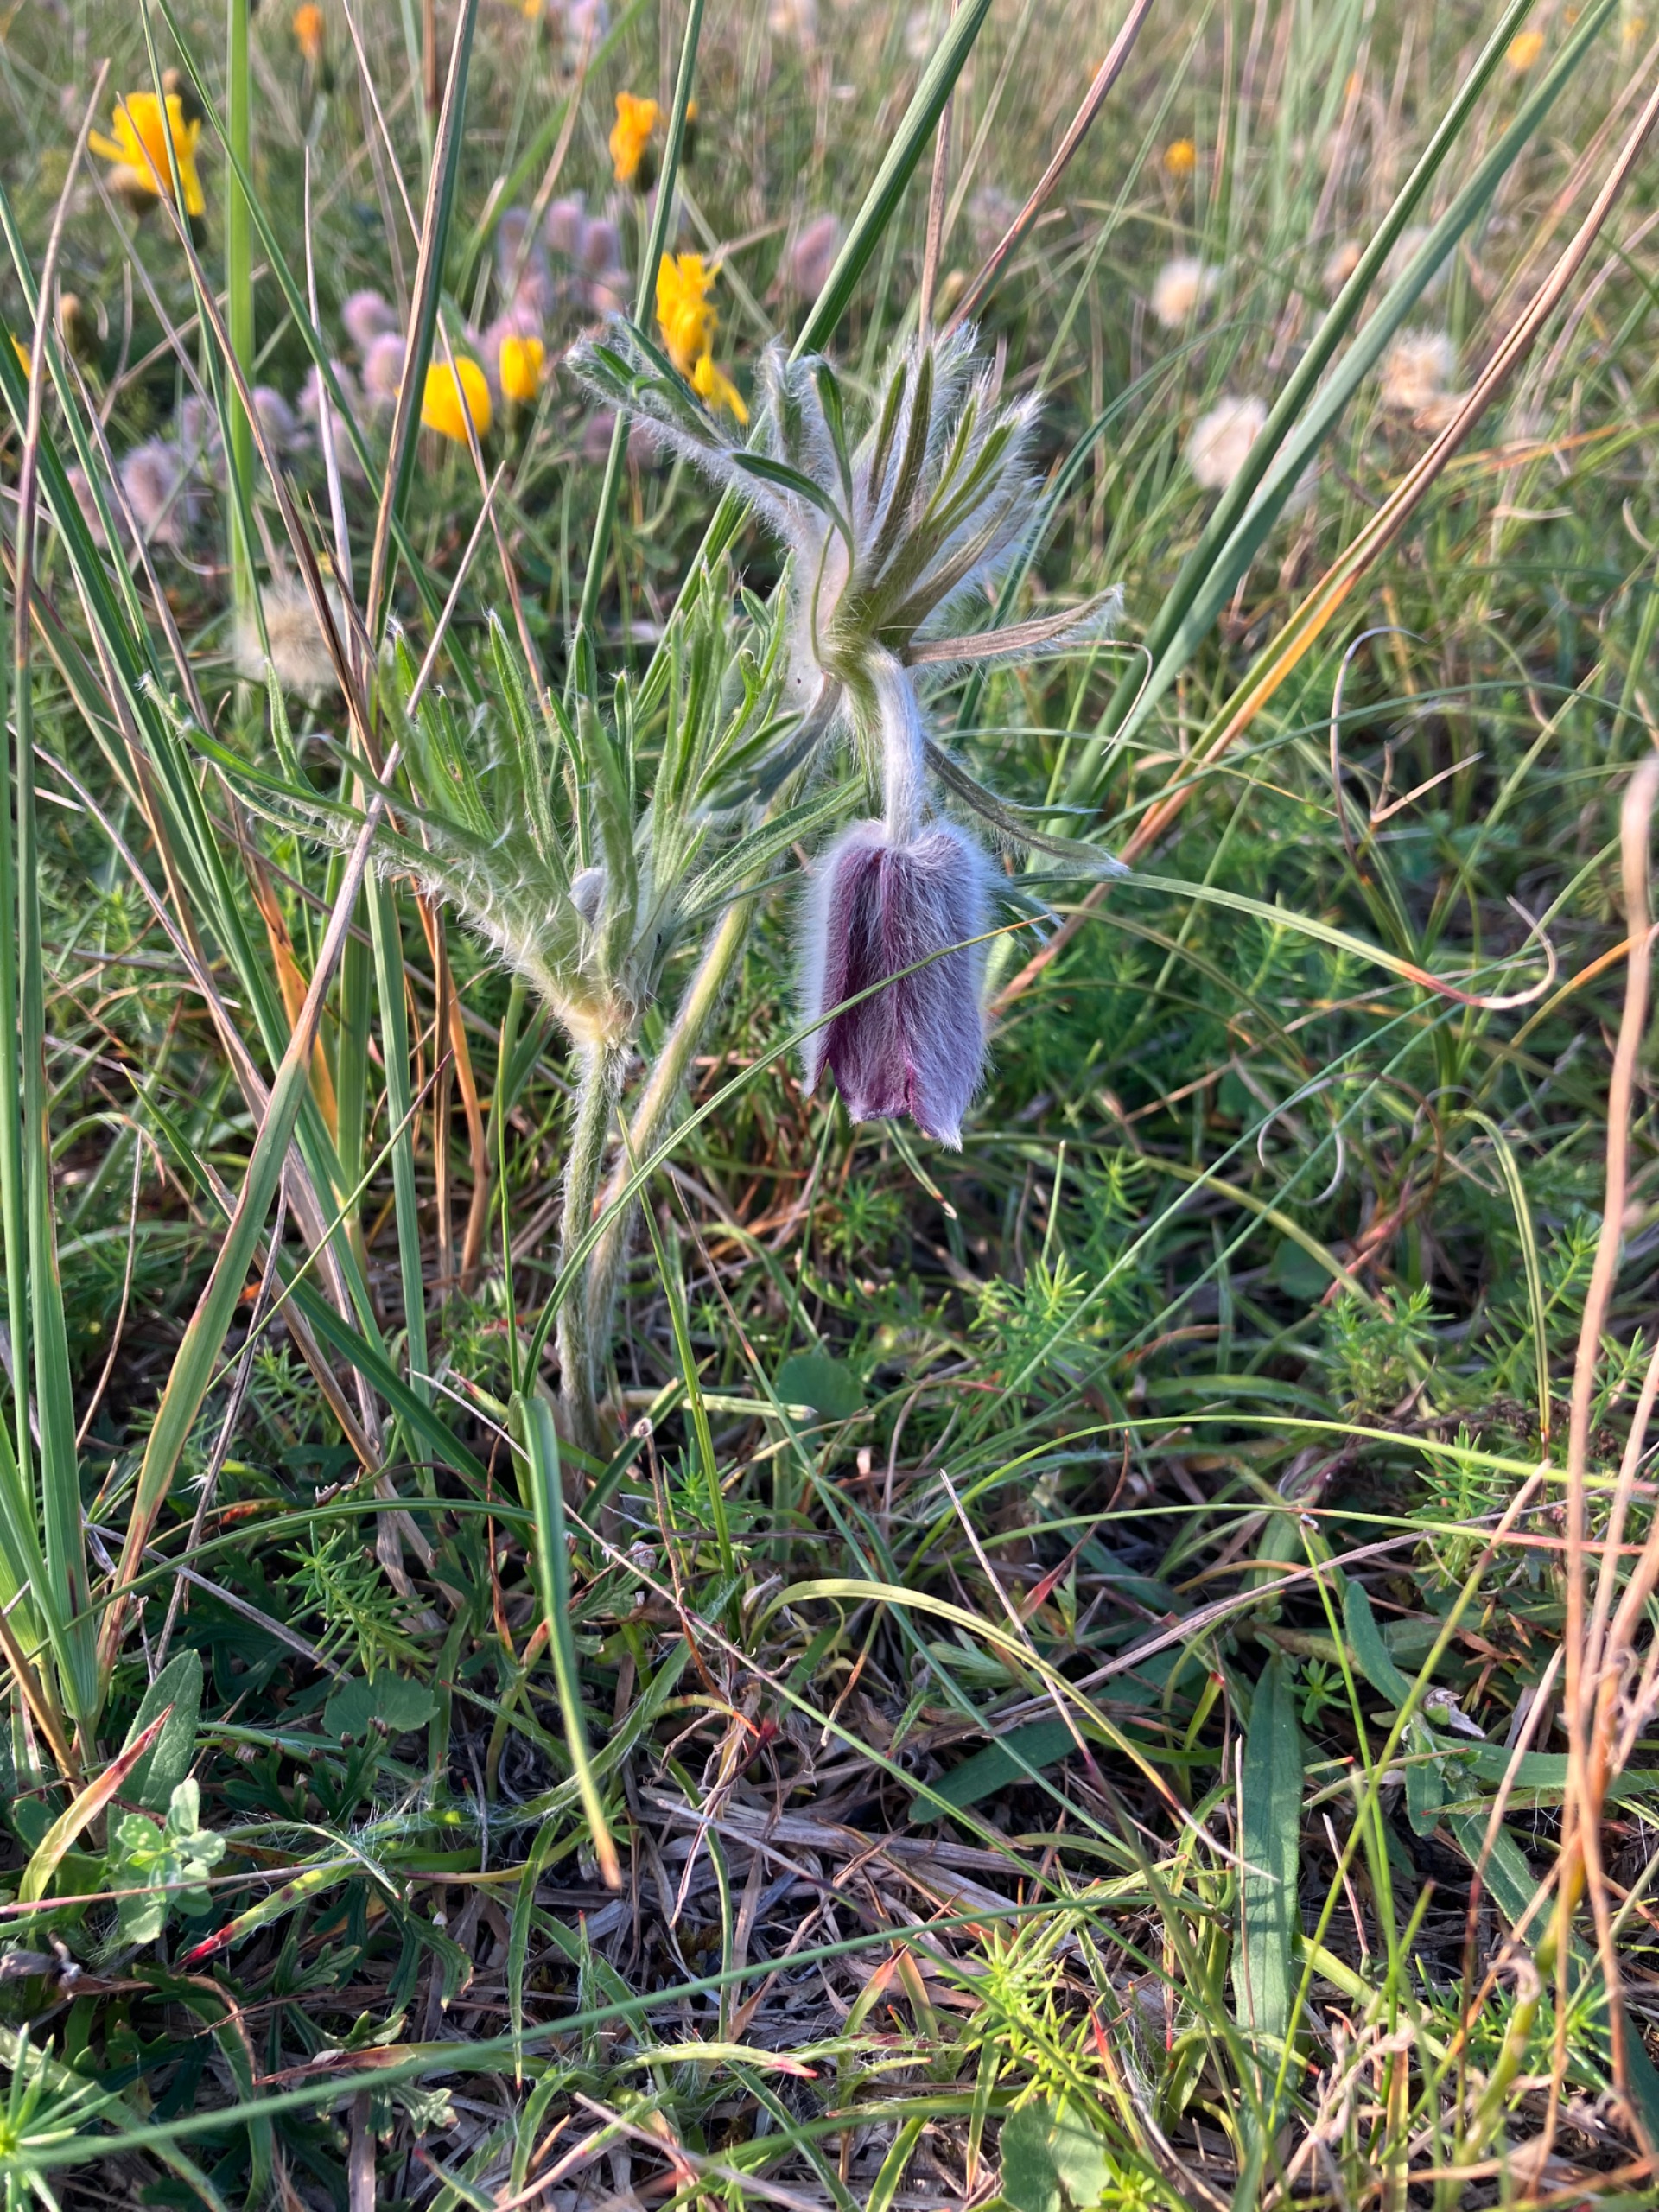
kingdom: Plantae
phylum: Tracheophyta
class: Magnoliopsida
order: Ranunculales
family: Ranunculaceae
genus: Pulsatilla
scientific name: Pulsatilla pratensis
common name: Nikkende kobjælde
